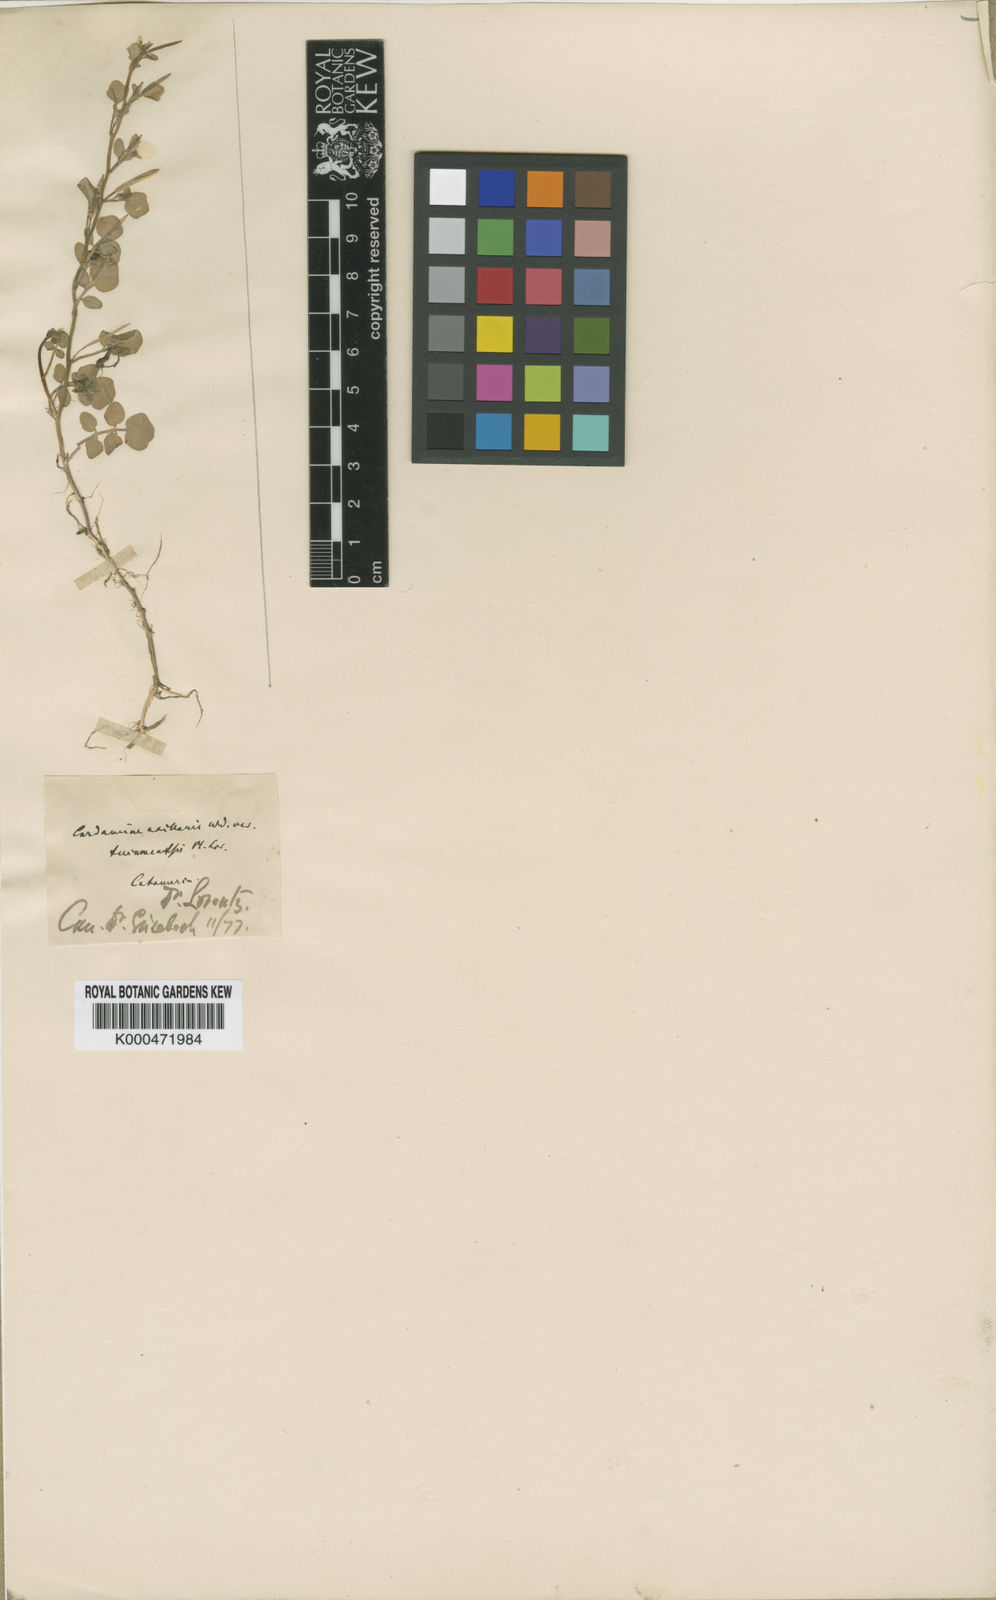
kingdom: Plantae
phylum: Tracheophyta
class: Magnoliopsida
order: Brassicales
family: Brassicaceae
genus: Cardamine
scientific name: Cardamine bonariensis
